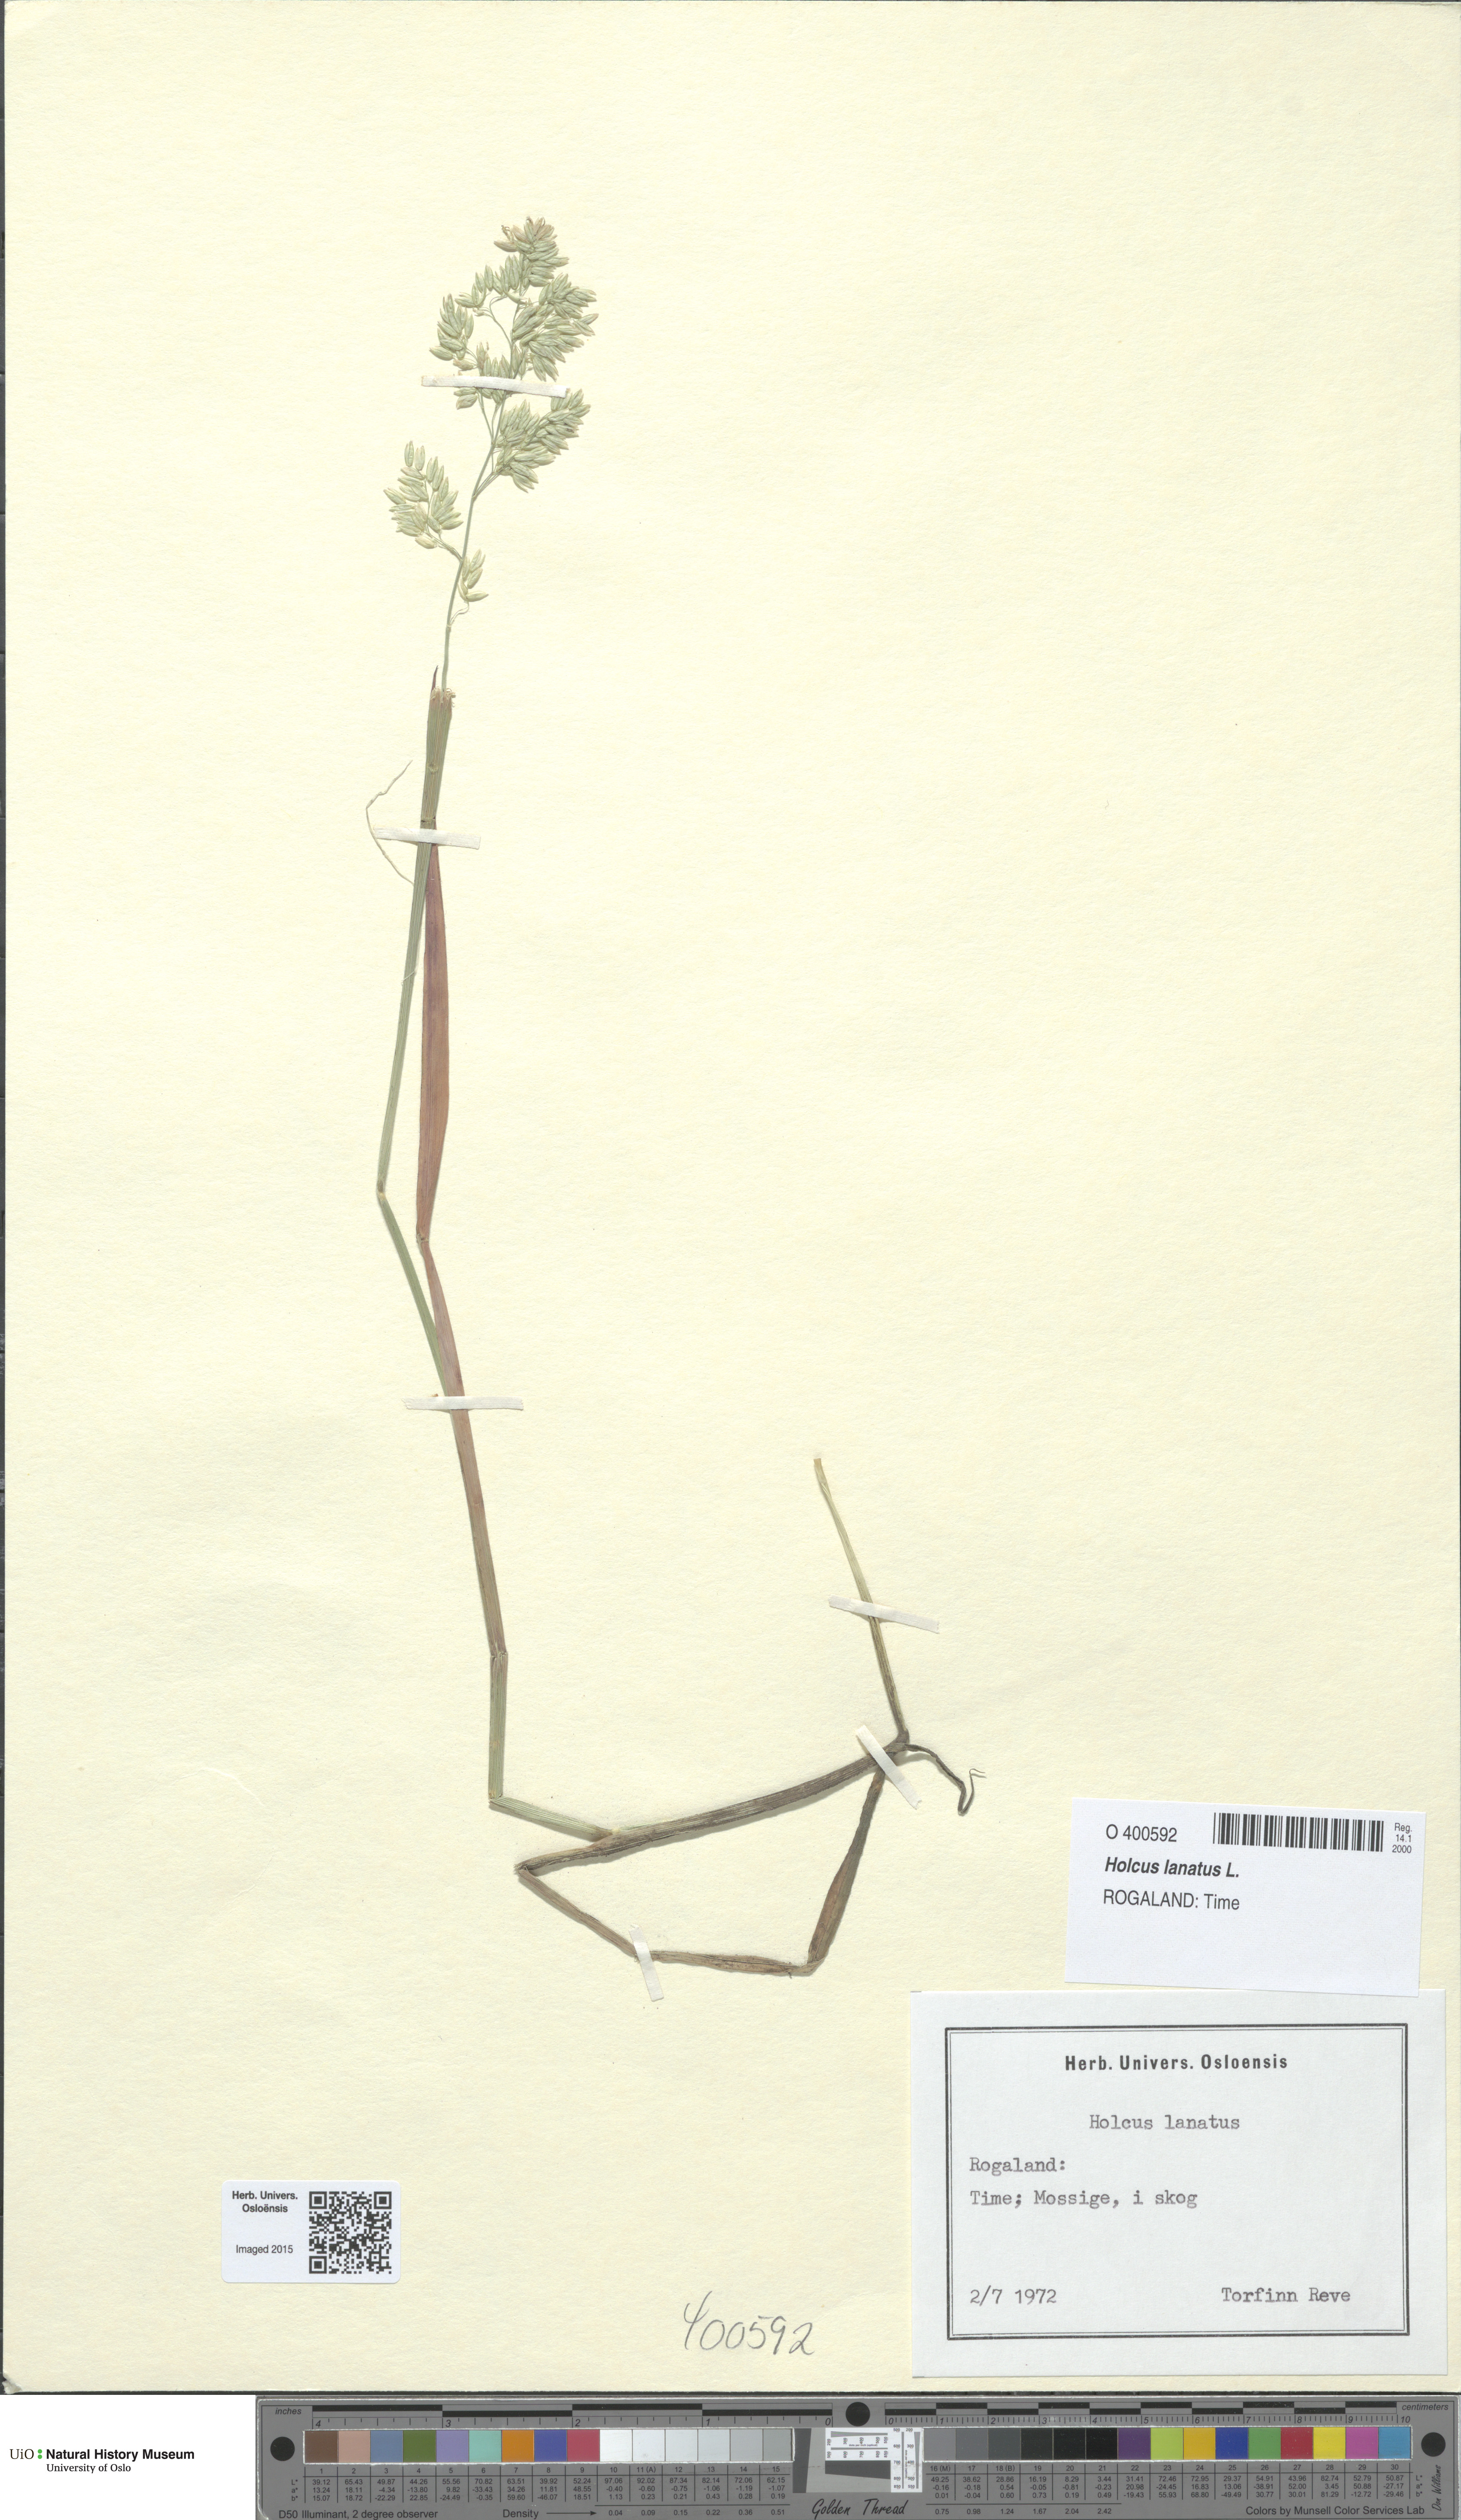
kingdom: Plantae
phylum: Tracheophyta
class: Liliopsida
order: Poales
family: Poaceae
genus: Holcus
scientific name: Holcus lanatus
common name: Yorkshire-fog
